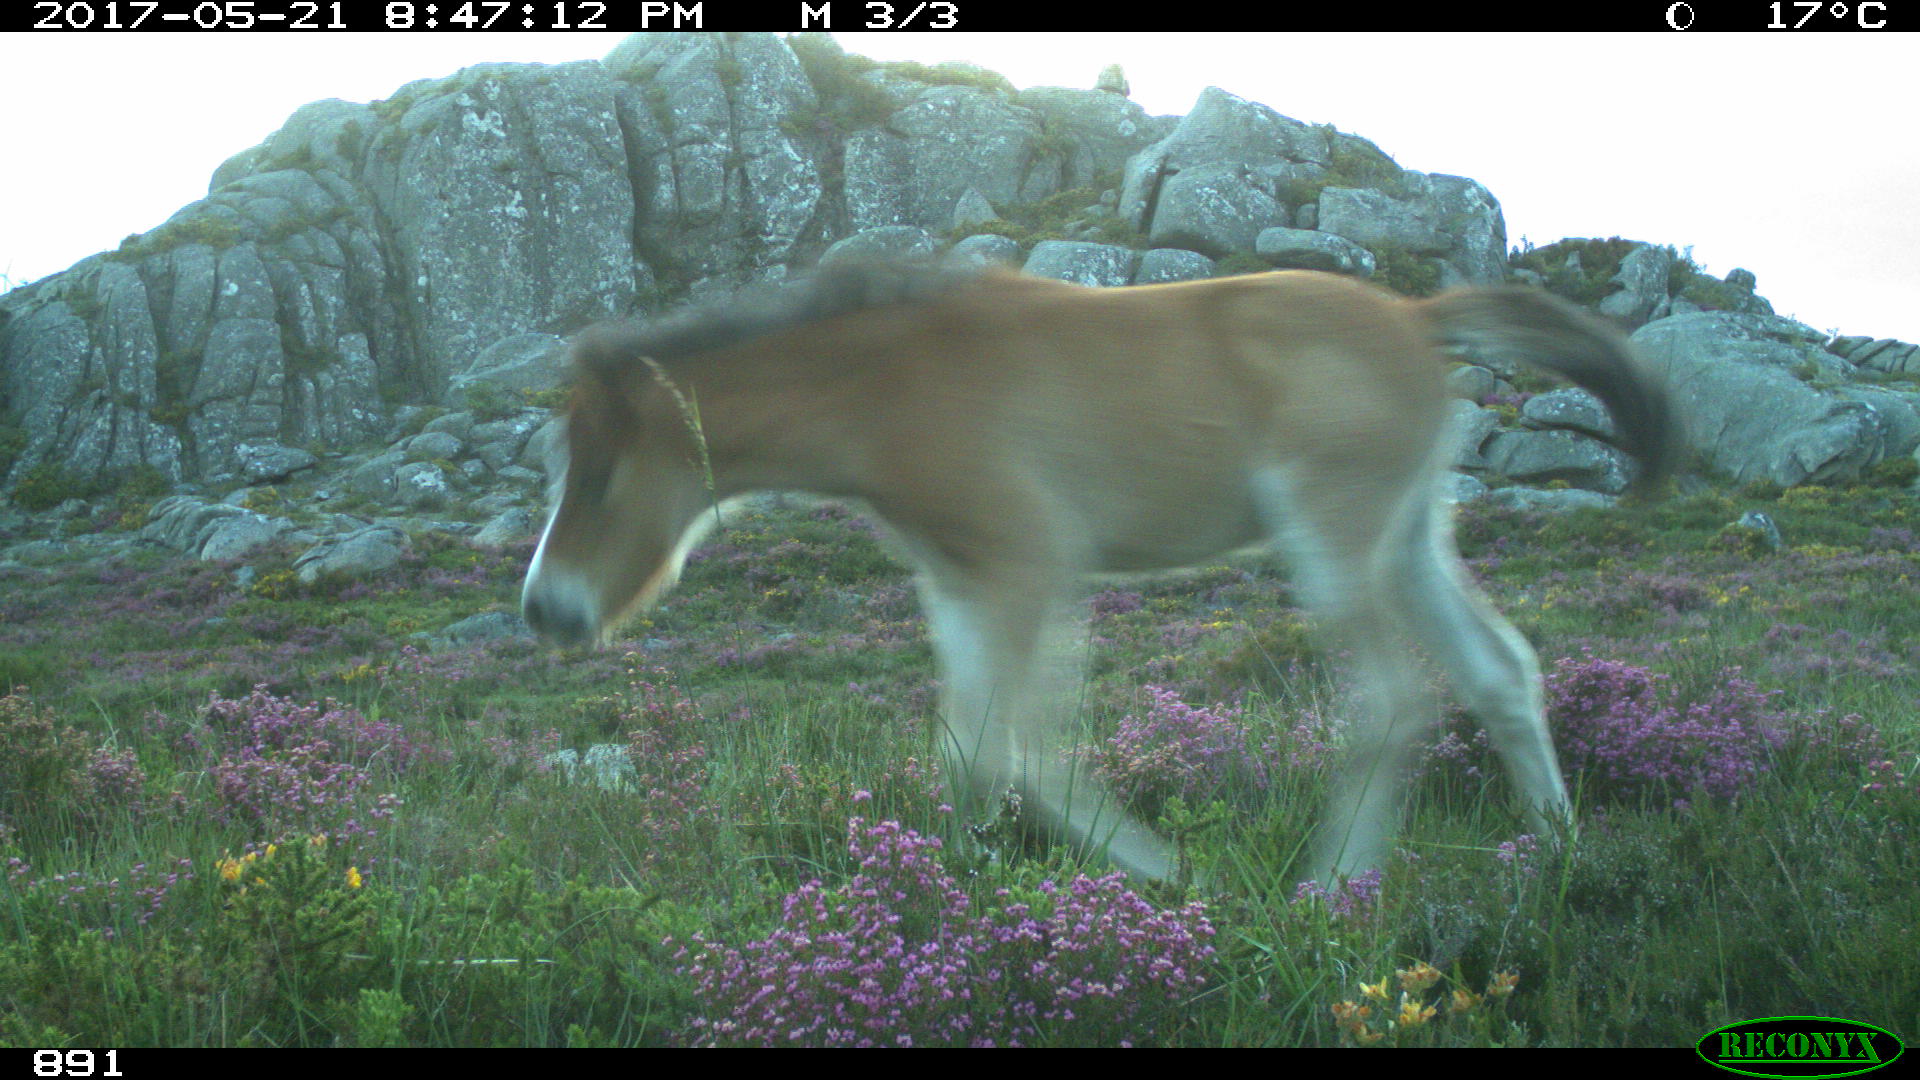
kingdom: Animalia
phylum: Chordata
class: Mammalia
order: Perissodactyla
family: Equidae
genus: Equus
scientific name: Equus caballus
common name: Horse
